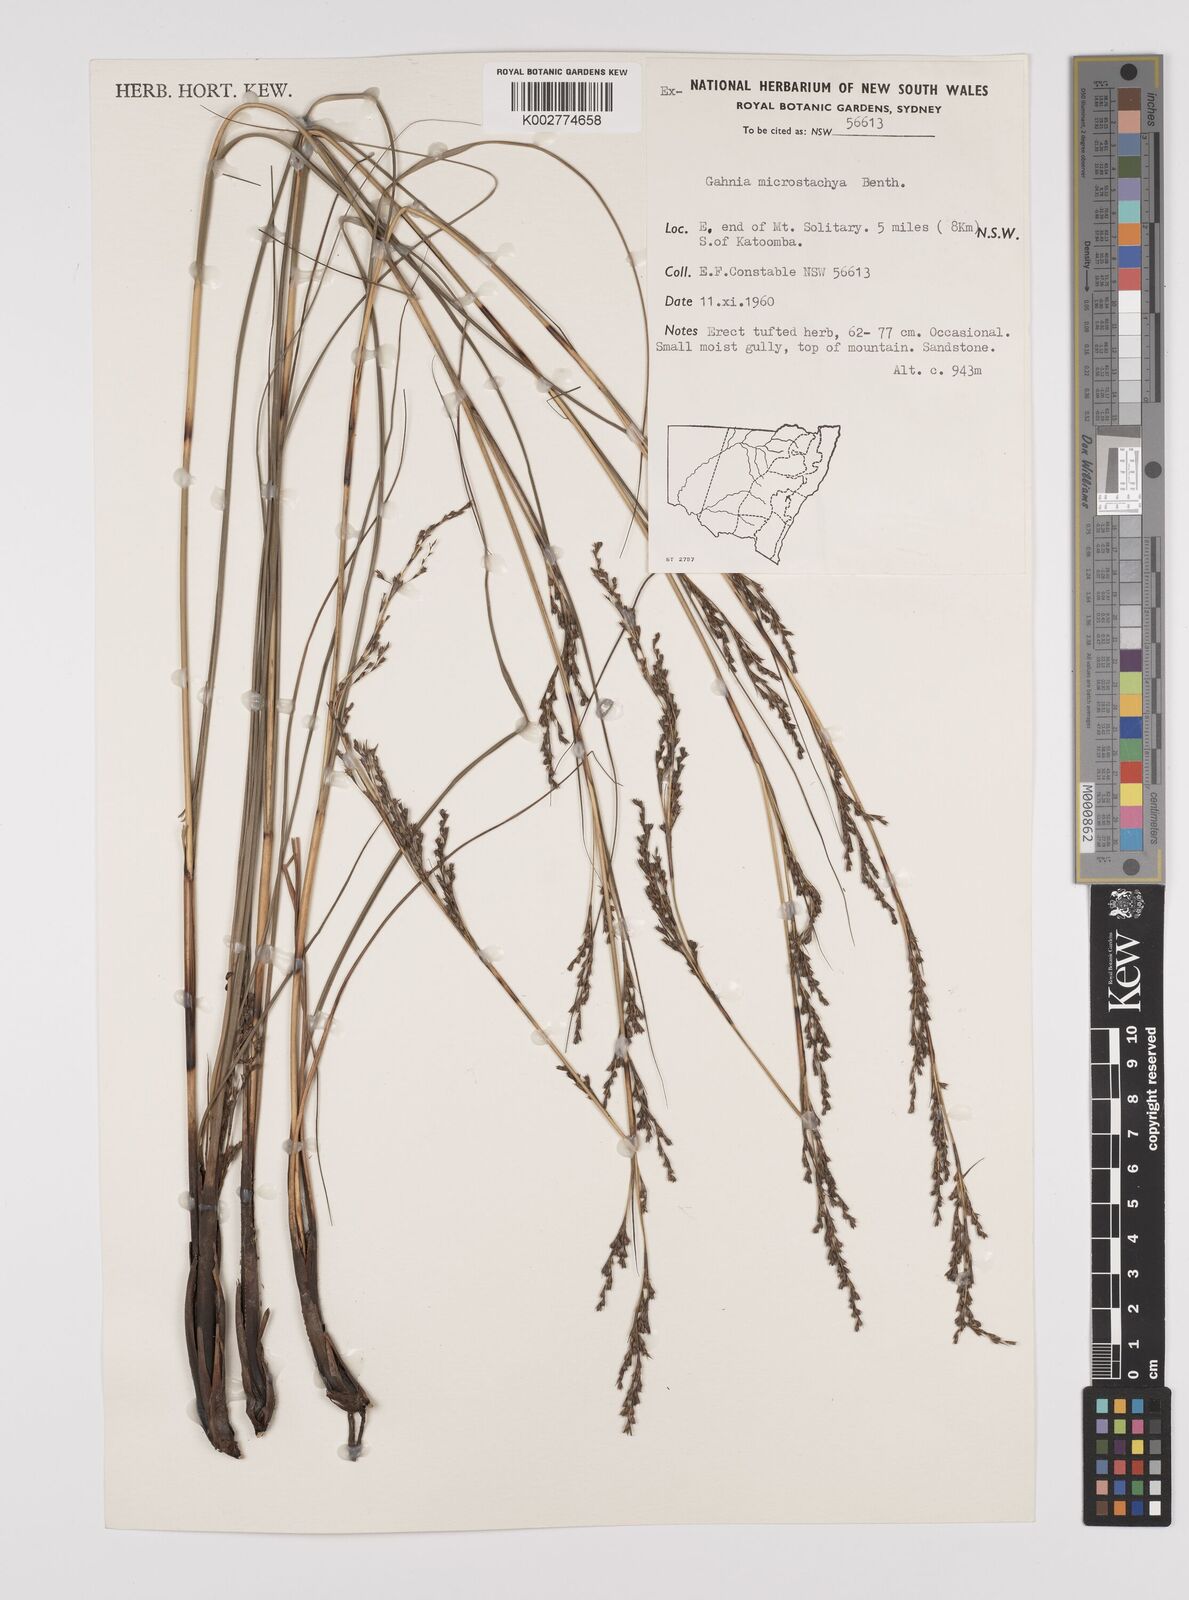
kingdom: Plantae
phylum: Tracheophyta
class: Liliopsida
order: Poales
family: Cyperaceae
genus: Gahnia
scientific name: Gahnia microstachya
